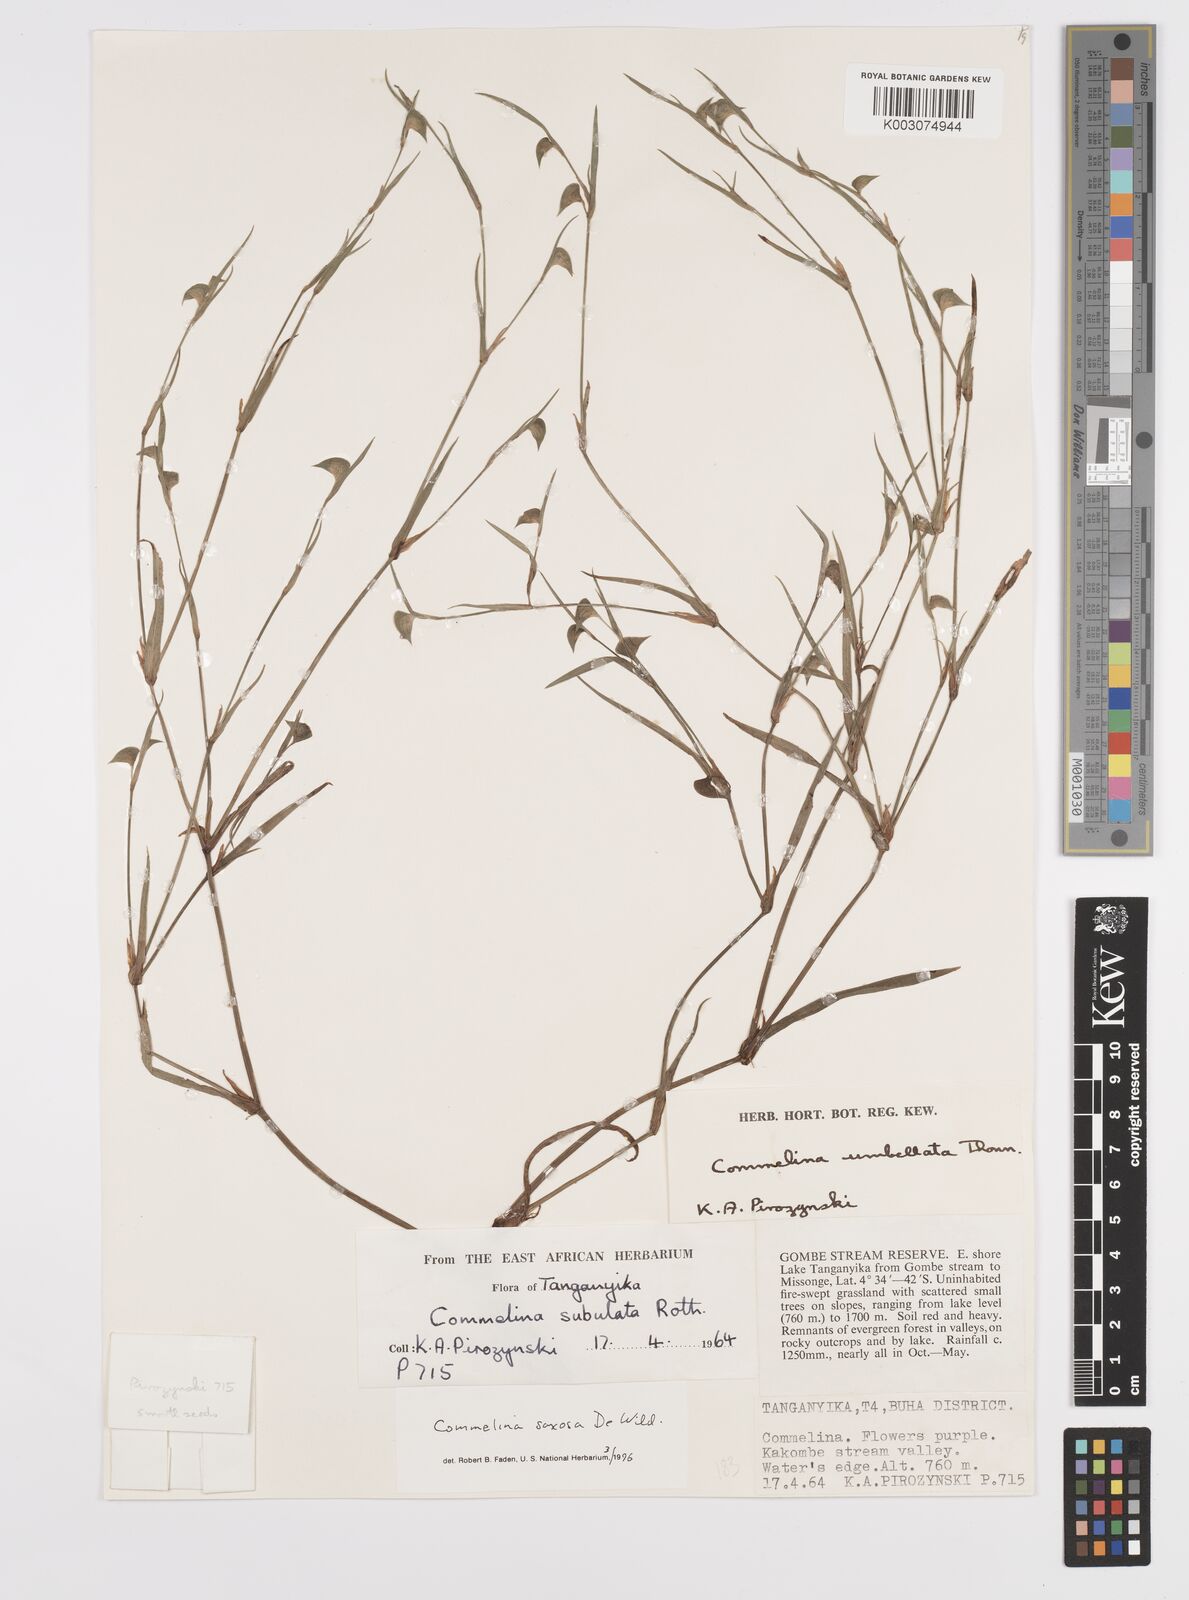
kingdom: Plantae
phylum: Tracheophyta
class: Liliopsida
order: Commelinales
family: Commelinaceae
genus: Commelina
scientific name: Commelina saxosa
